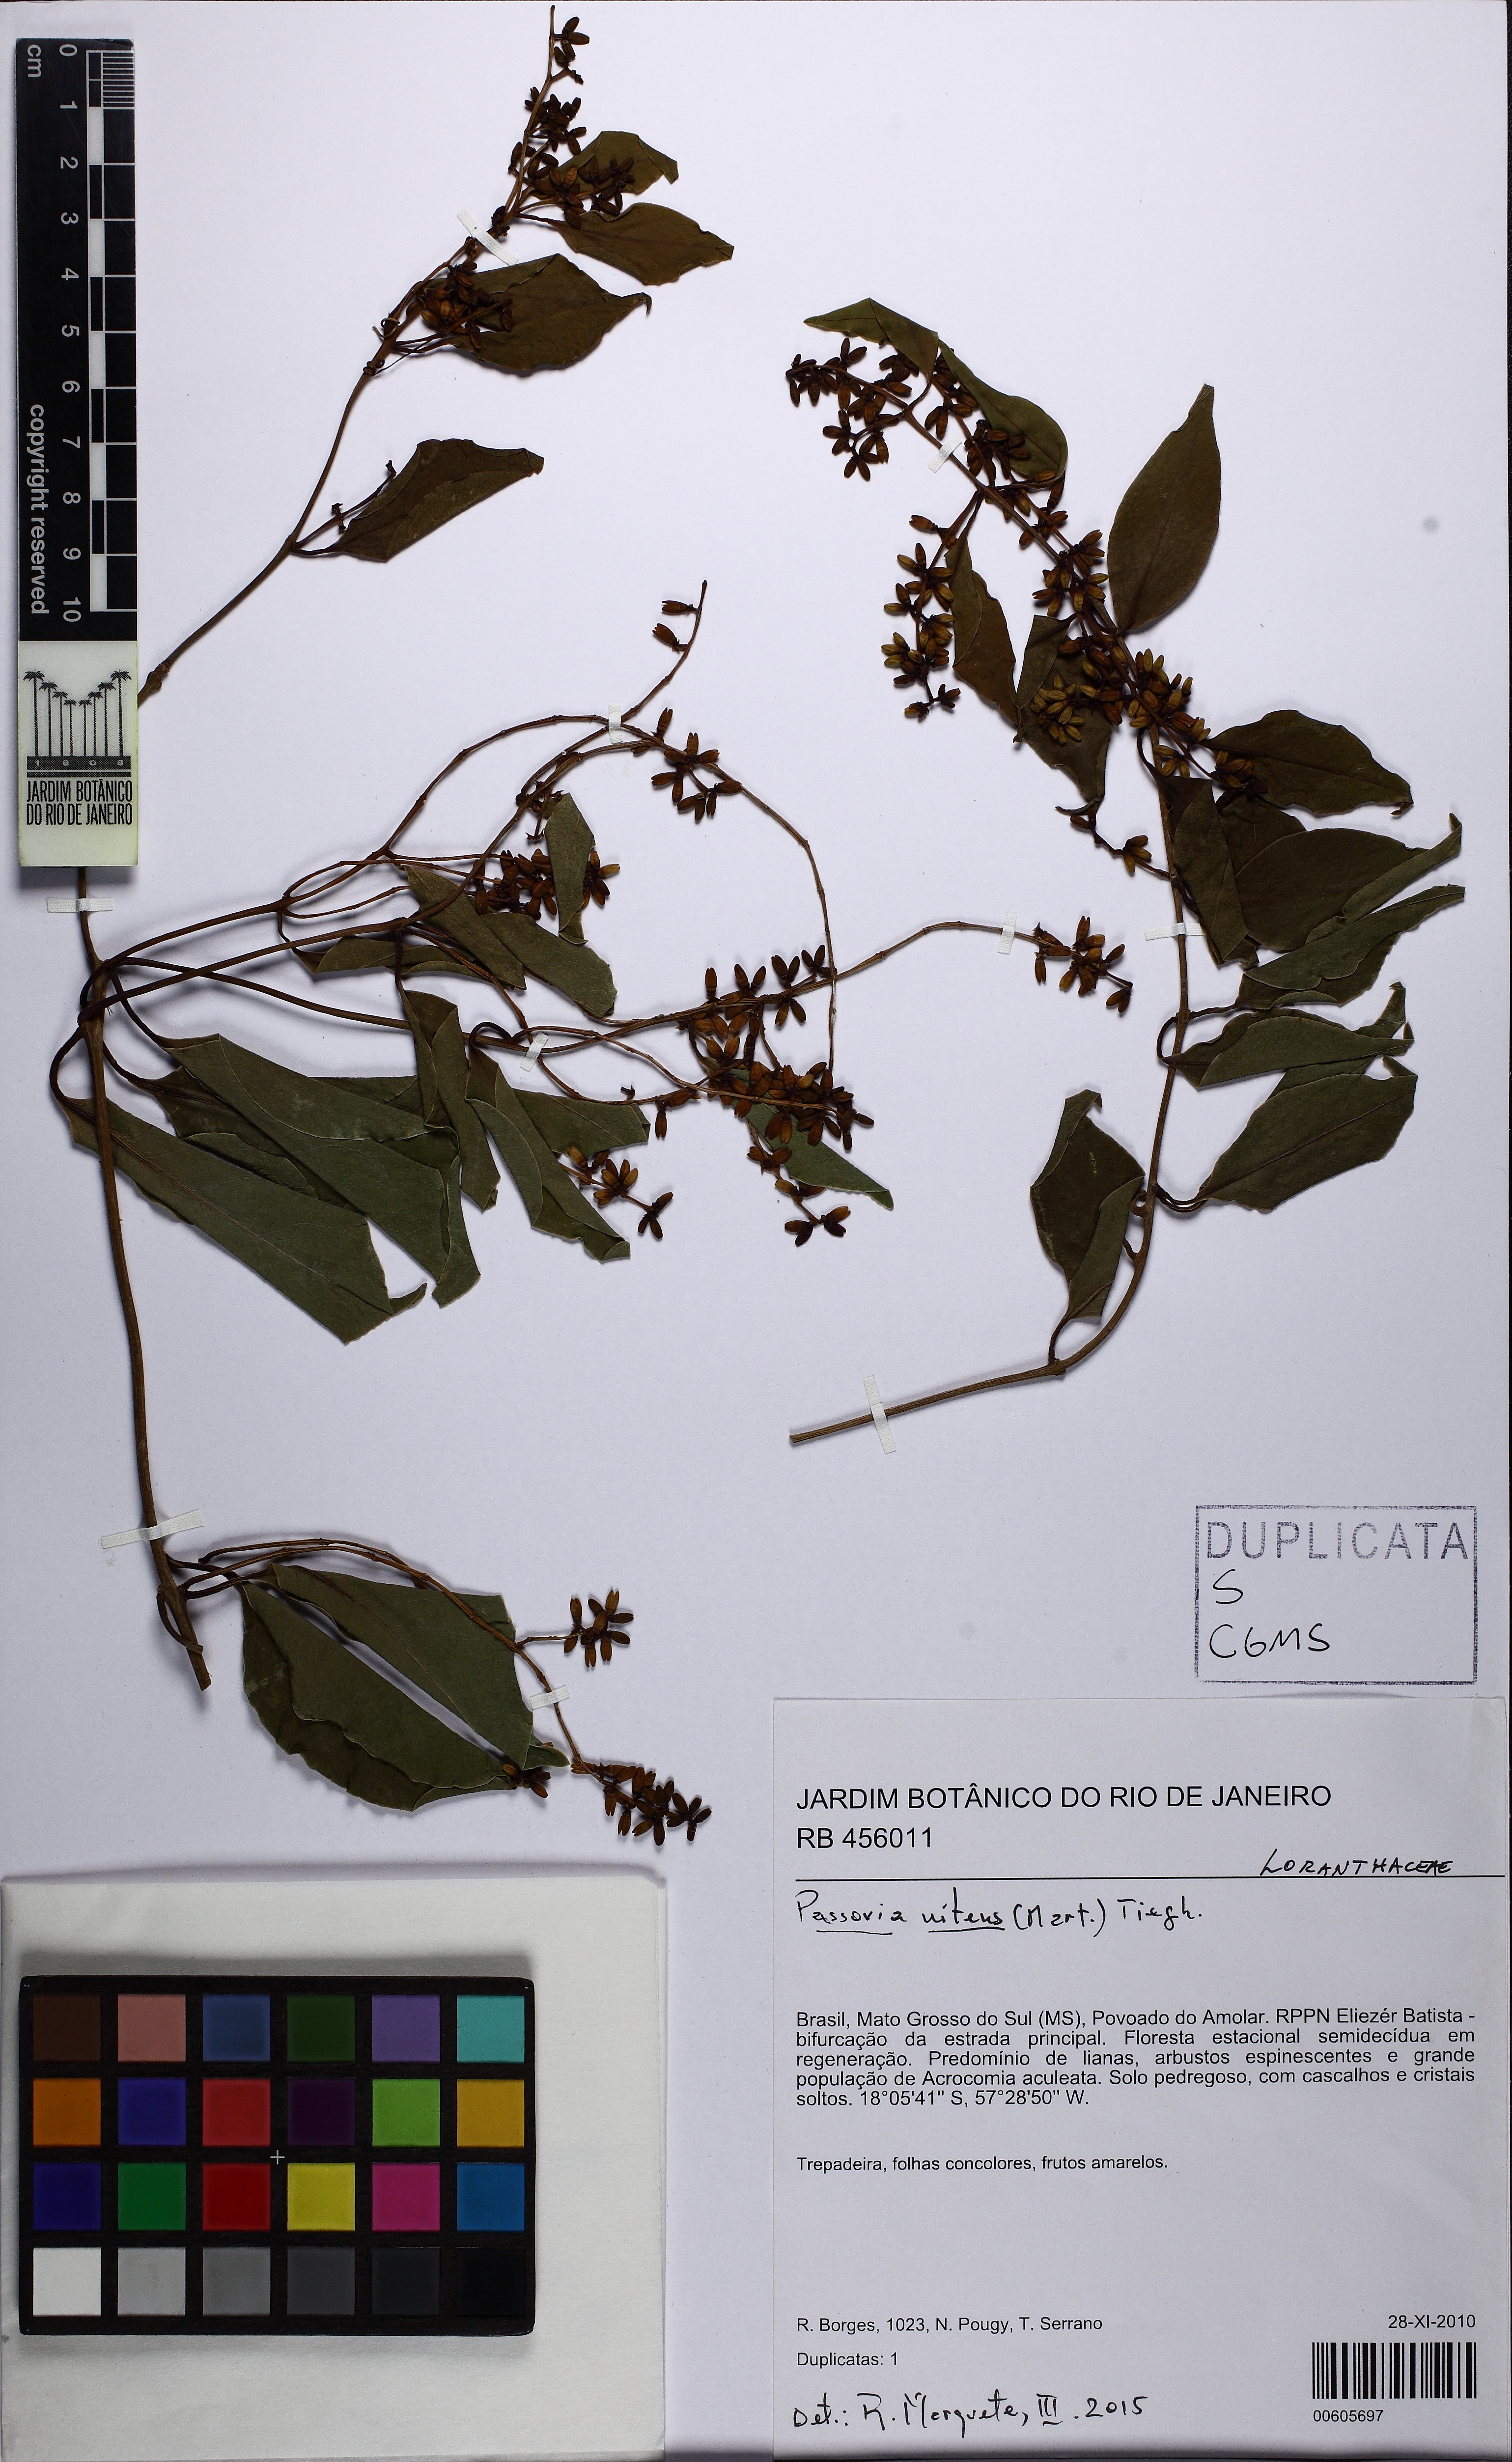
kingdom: Plantae
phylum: Tracheophyta
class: Magnoliopsida
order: Santalales
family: Loranthaceae
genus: Passovia
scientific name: Passovia theloneura
